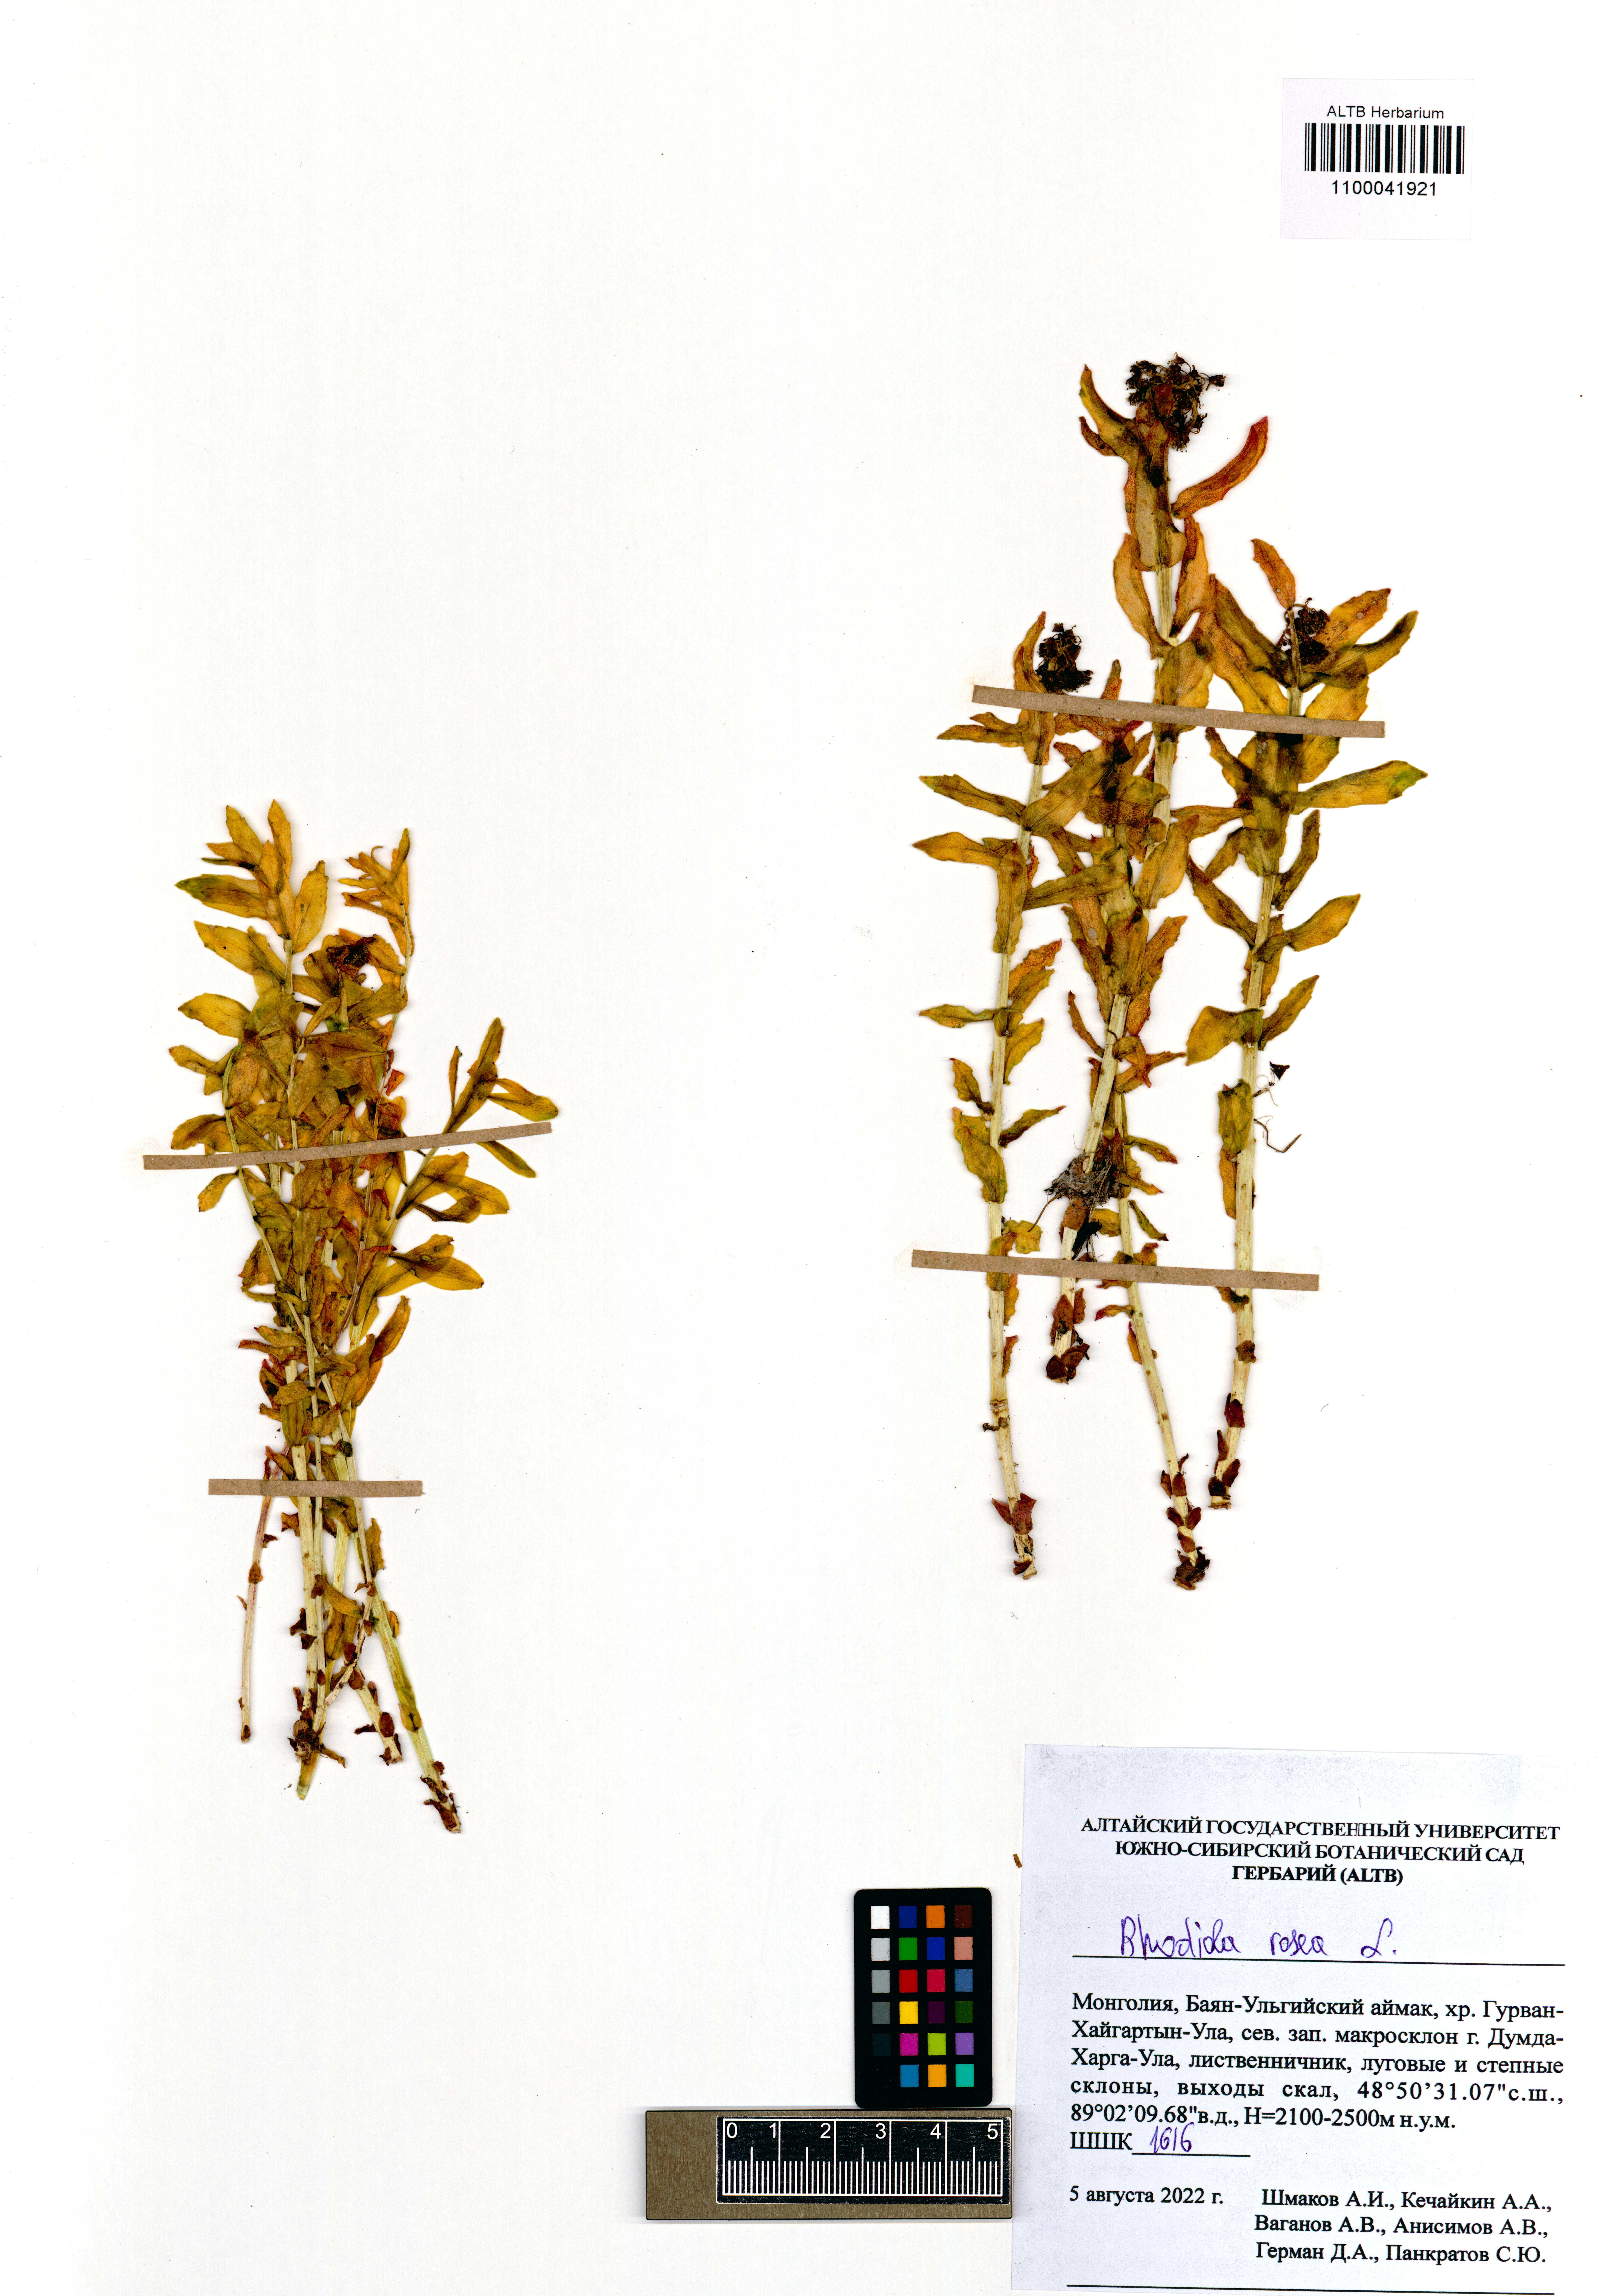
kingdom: Plantae
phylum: Tracheophyta
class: Magnoliopsida
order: Saxifragales
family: Crassulaceae
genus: Rhodiola
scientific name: Rhodiola rosea
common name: Roseroot
